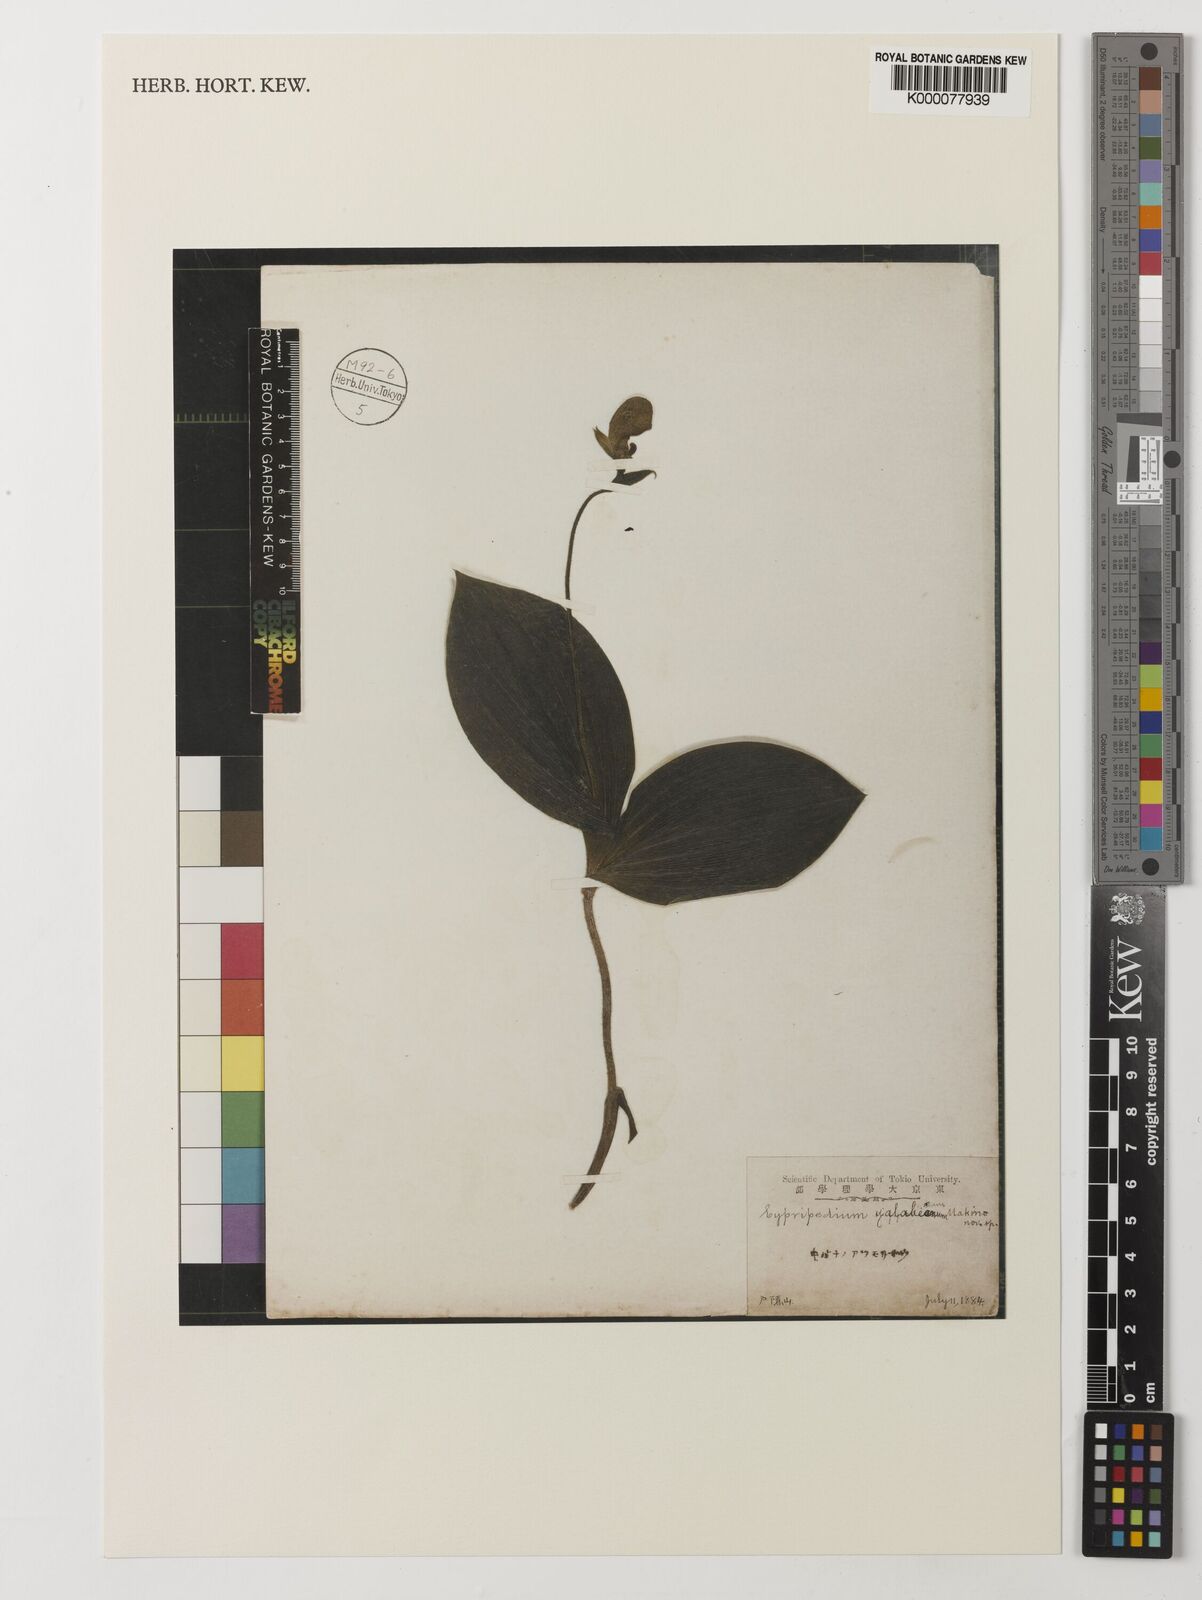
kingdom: Plantae
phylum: Tracheophyta
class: Liliopsida
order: Asparagales
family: Orchidaceae
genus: Cypripedium
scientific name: Cypripedium yatabeanum
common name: Spotted lady's slipper
